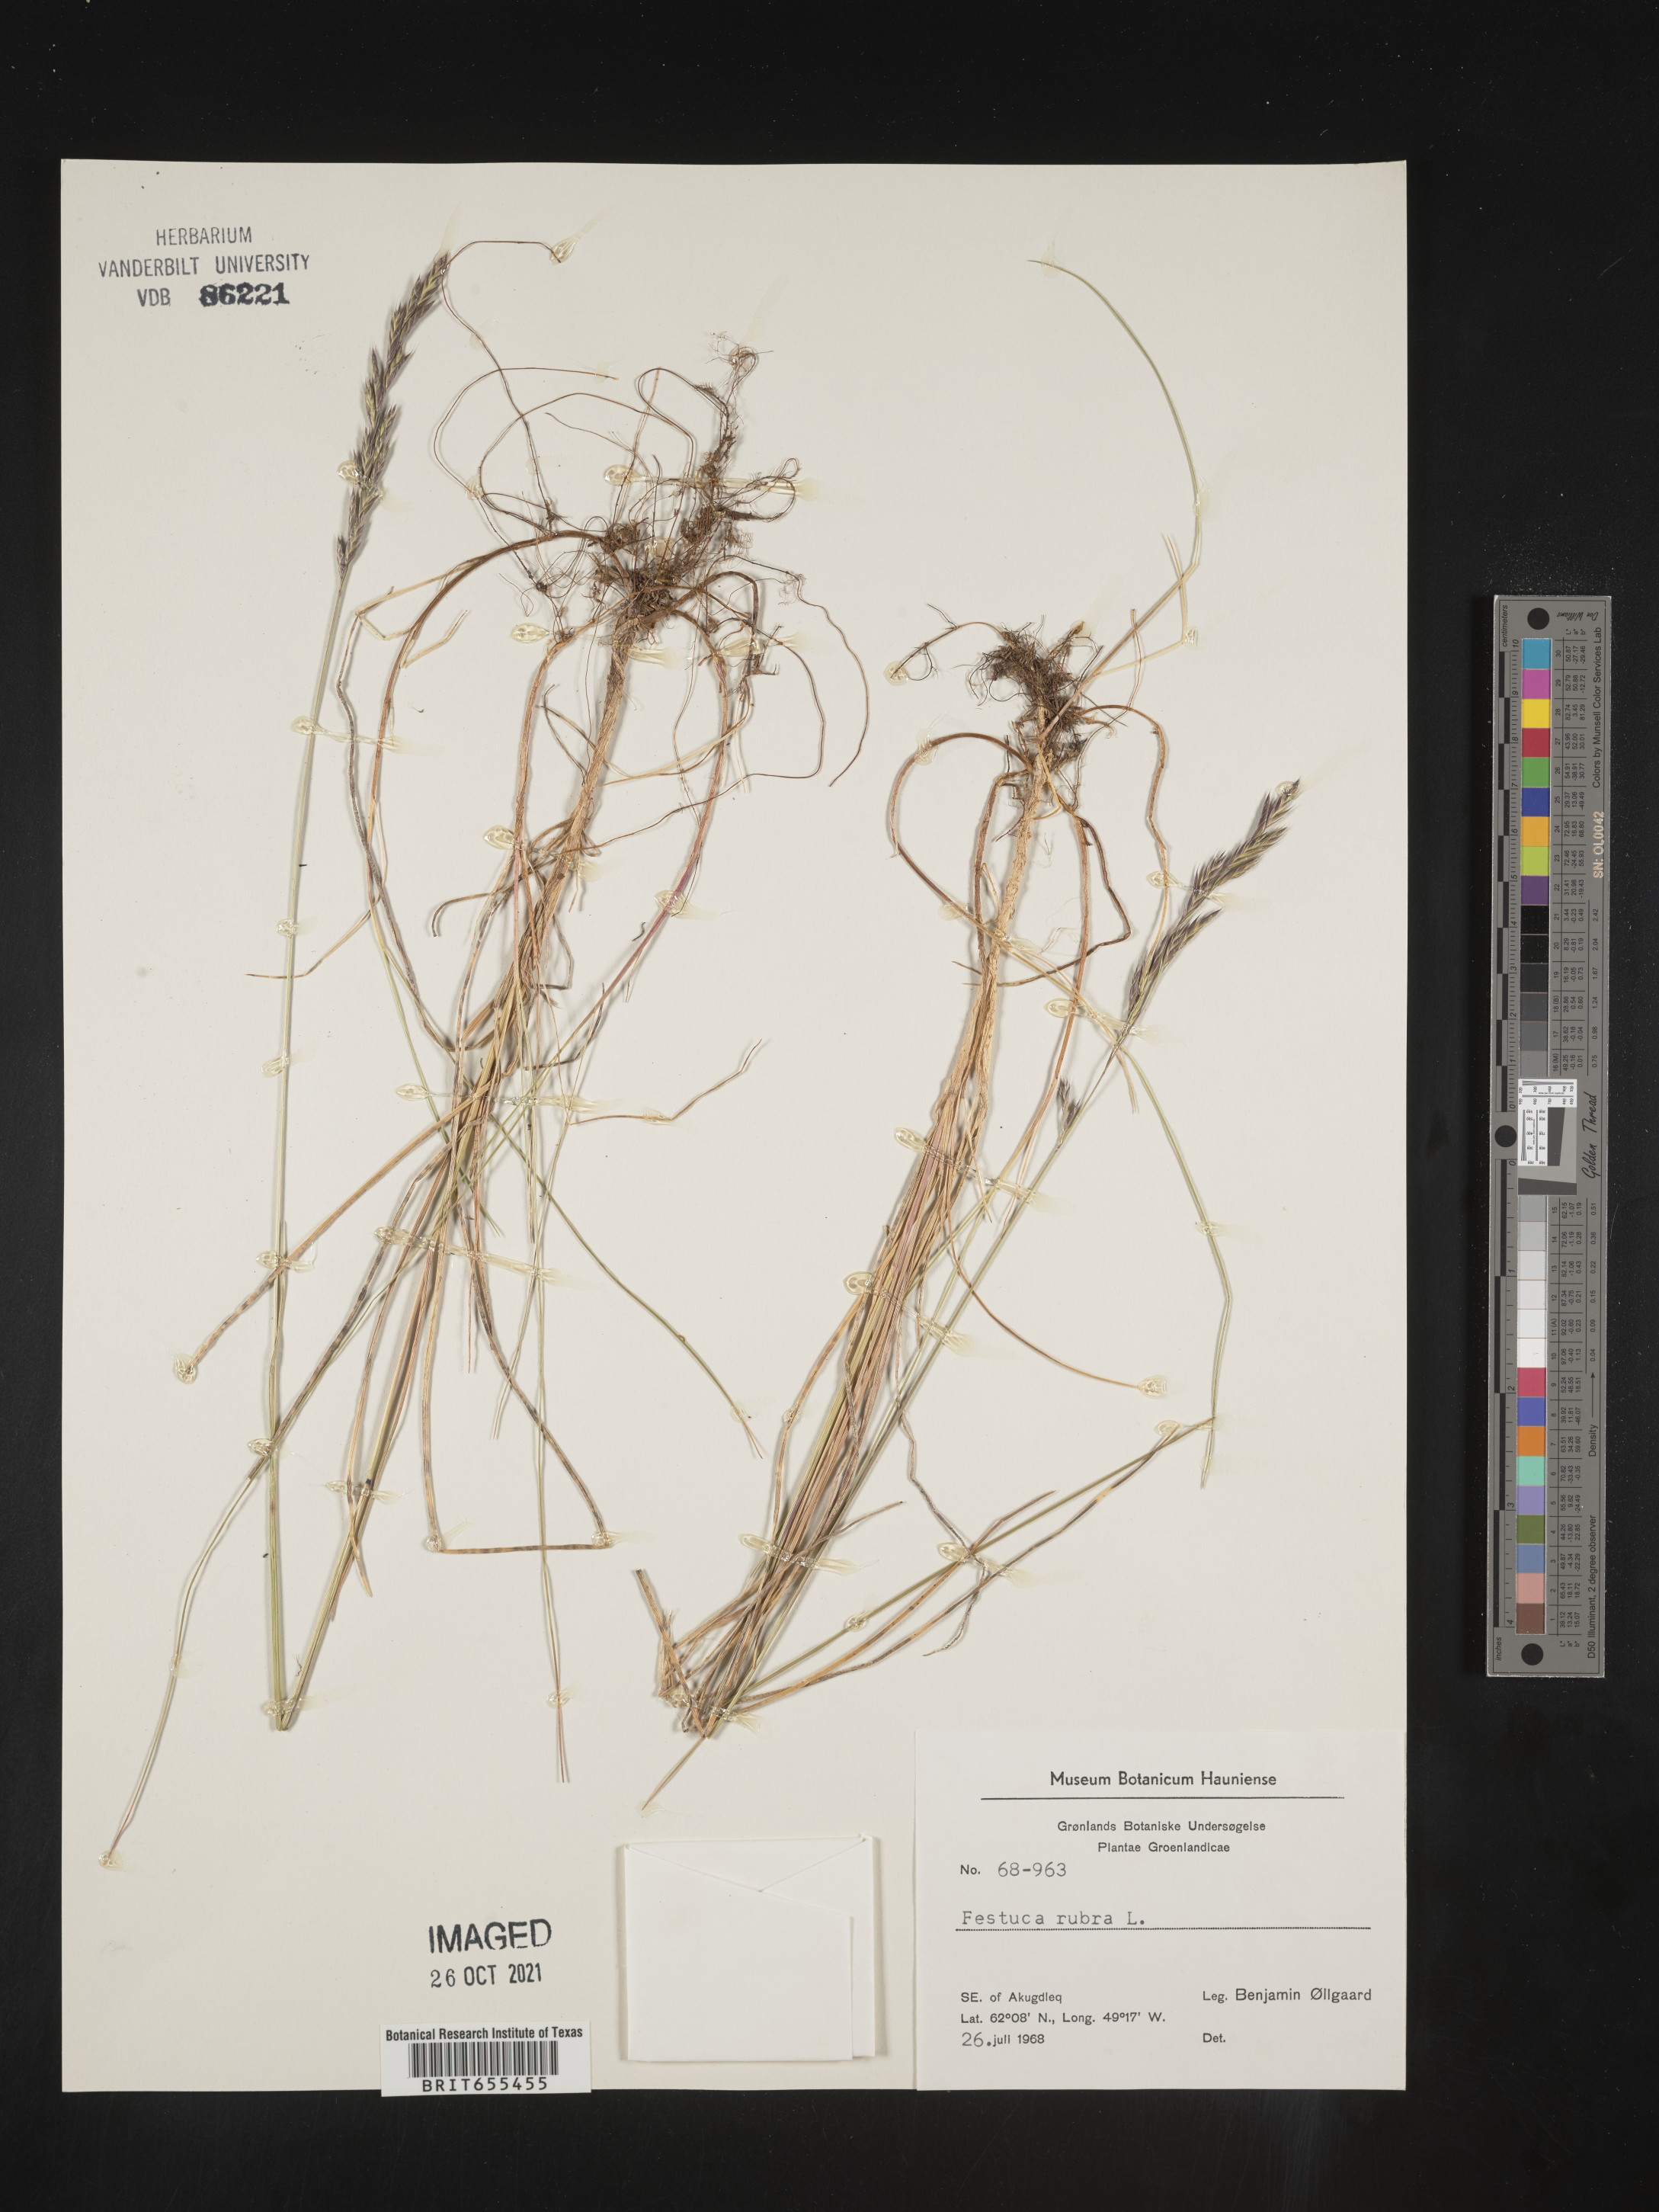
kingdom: Plantae
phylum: Tracheophyta
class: Liliopsida
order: Poales
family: Poaceae
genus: Festuca
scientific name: Festuca
